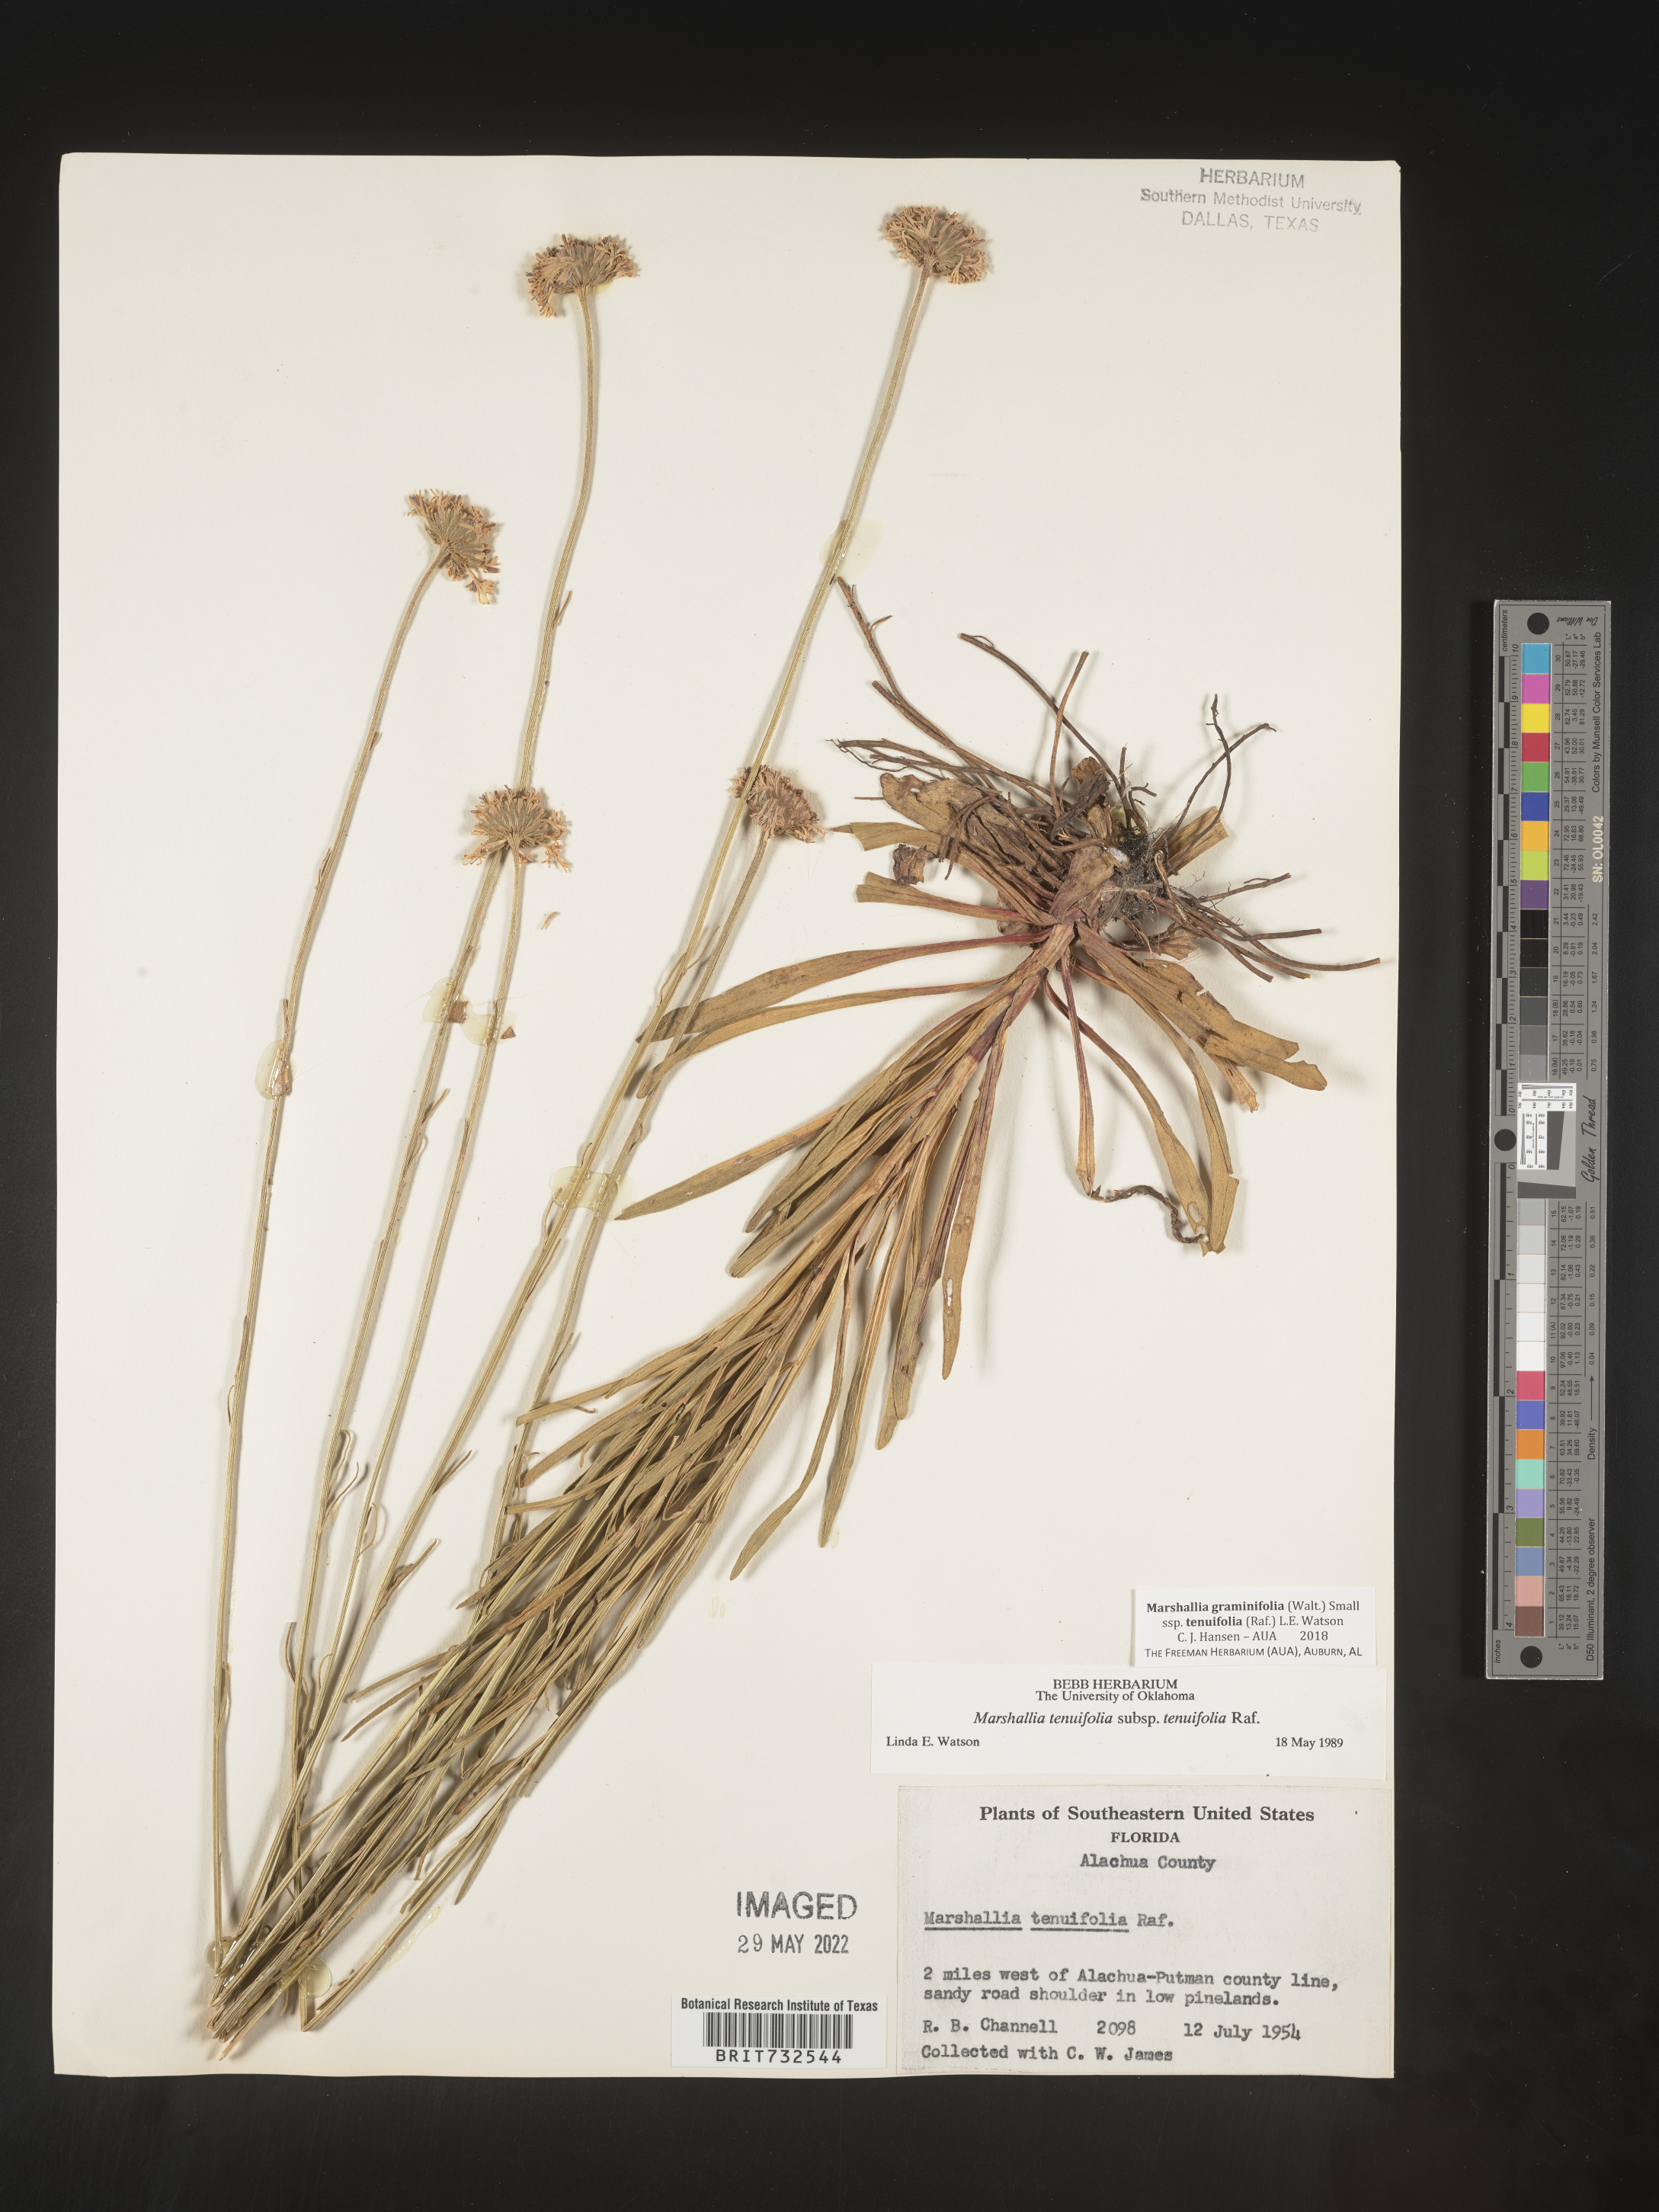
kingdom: Plantae
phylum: Tracheophyta
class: Magnoliopsida
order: Asterales
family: Asteraceae
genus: Marshallia
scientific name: Marshallia graminifolia
